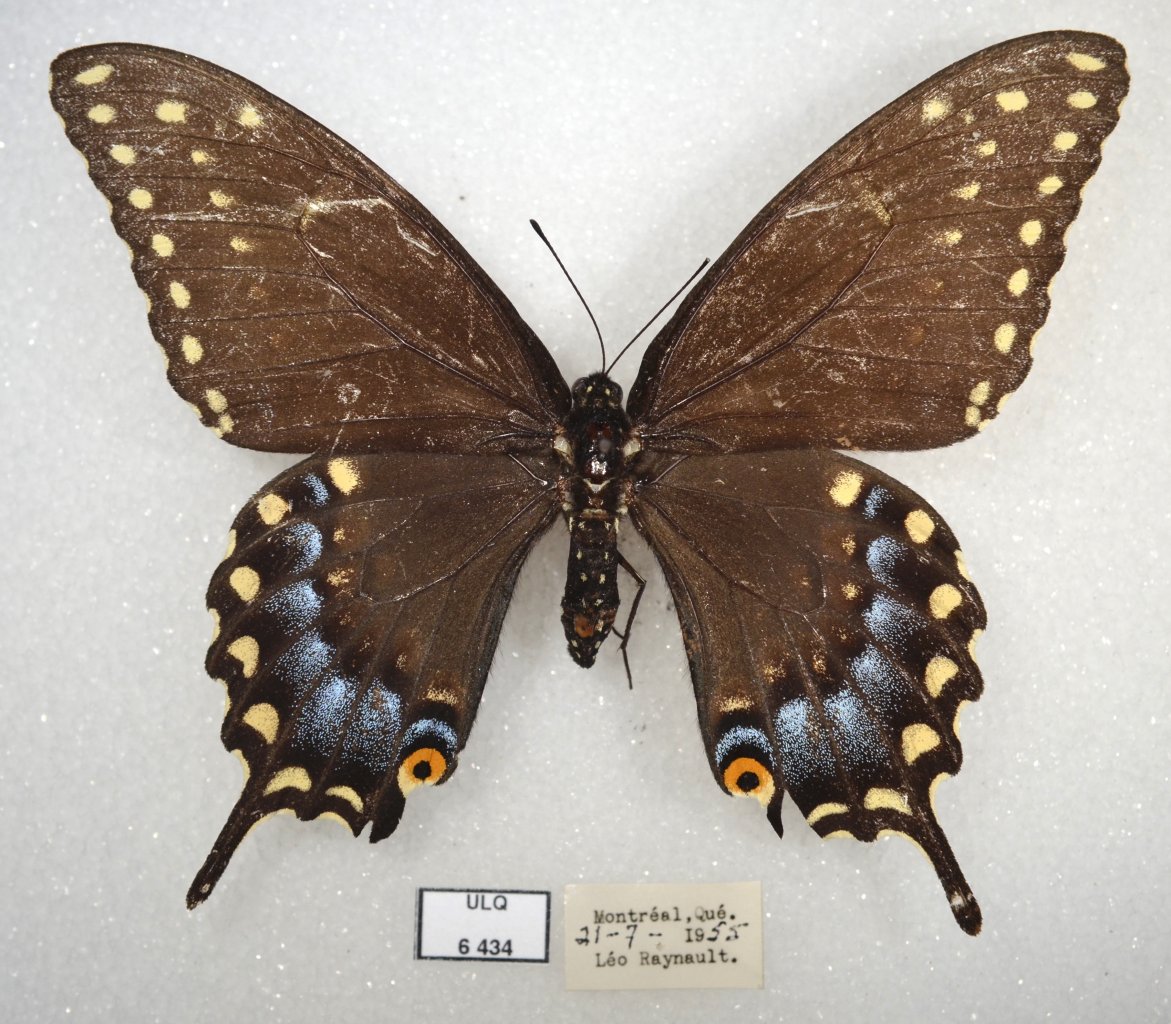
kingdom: Animalia
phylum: Arthropoda
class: Insecta
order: Lepidoptera
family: Papilionidae
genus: Papilio
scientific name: Papilio polyxenes
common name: Black Swallowtail
